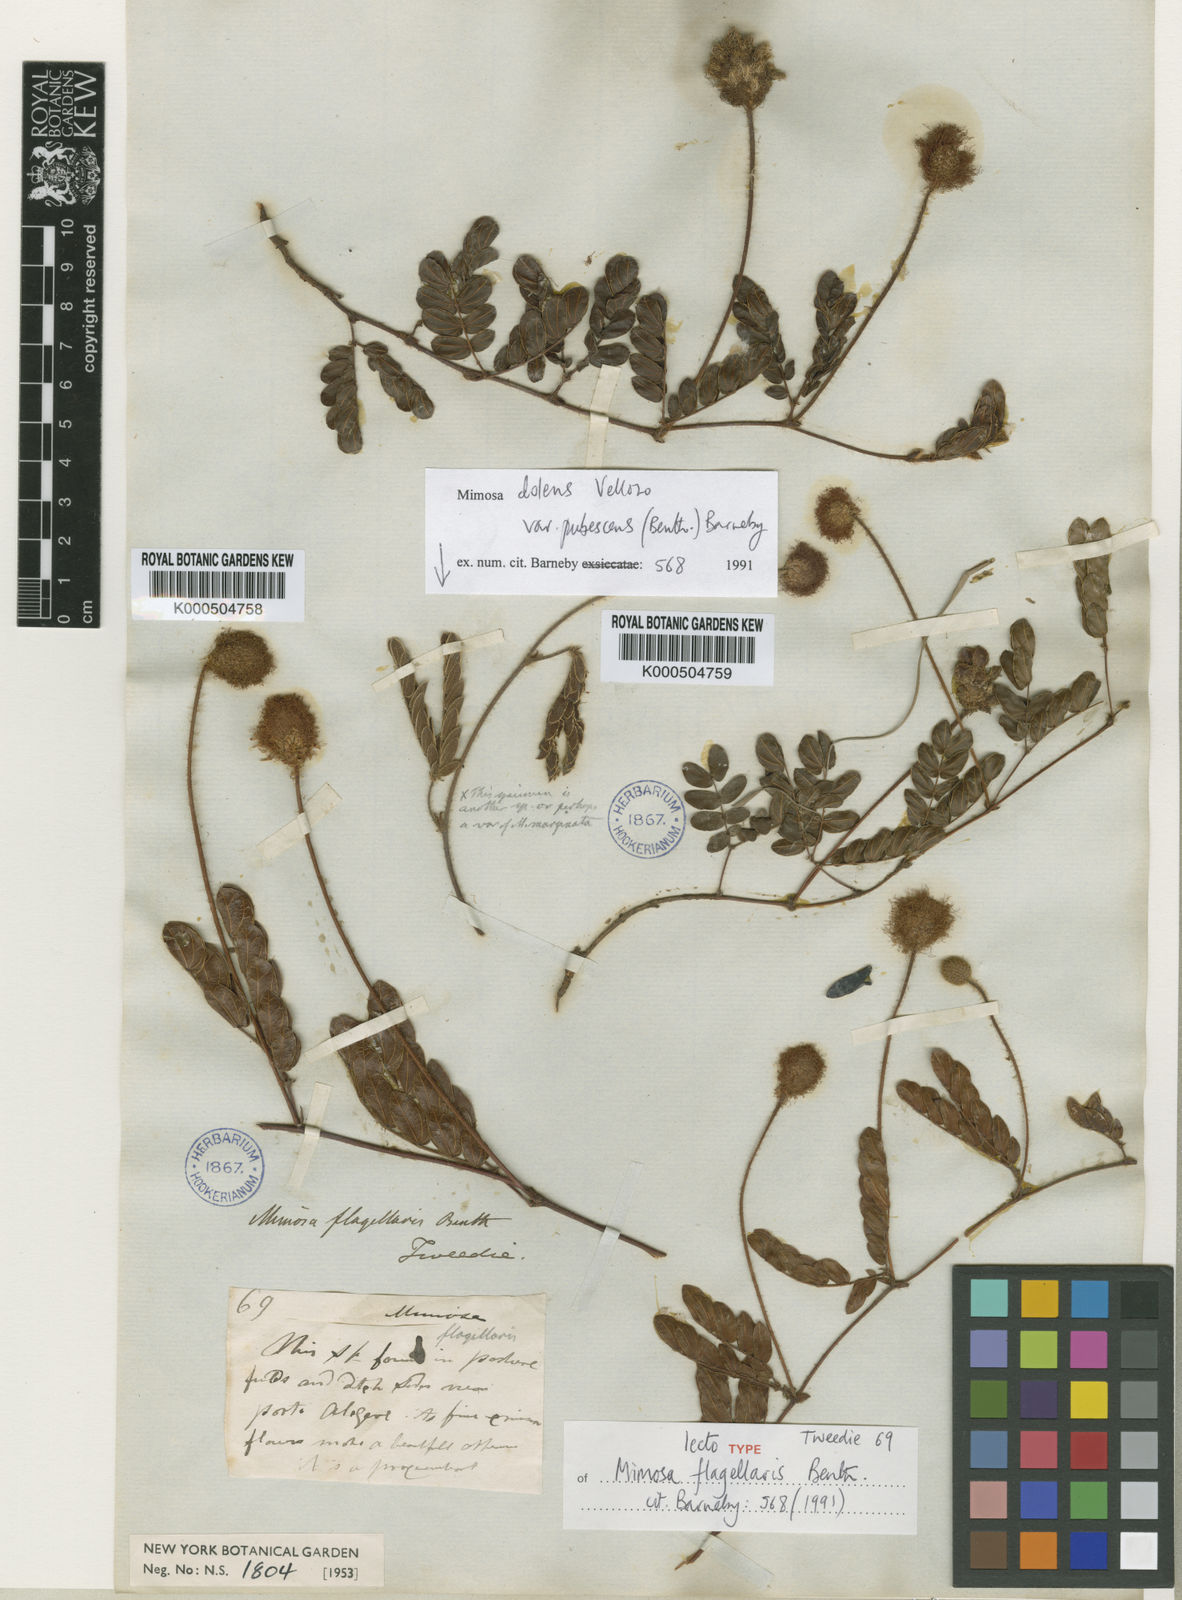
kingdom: Plantae
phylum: Tracheophyta
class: Magnoliopsida
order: Fabales
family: Fabaceae
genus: Mimosa
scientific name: Mimosa flagellaris
